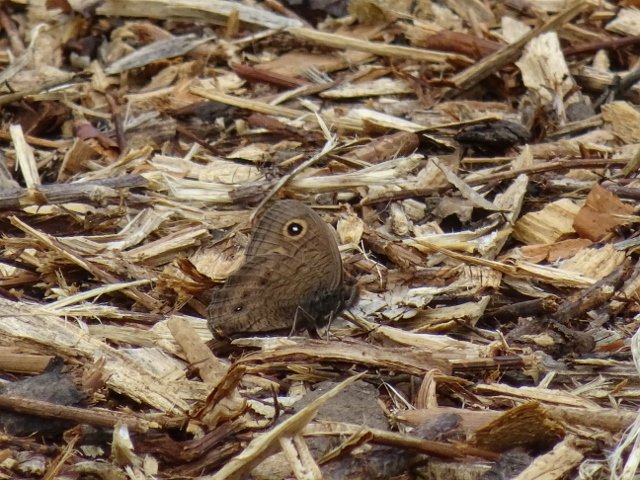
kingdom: Animalia
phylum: Arthropoda
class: Insecta
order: Lepidoptera
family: Nymphalidae
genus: Cercyonis
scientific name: Cercyonis pegala
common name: Common Wood-Nymph
